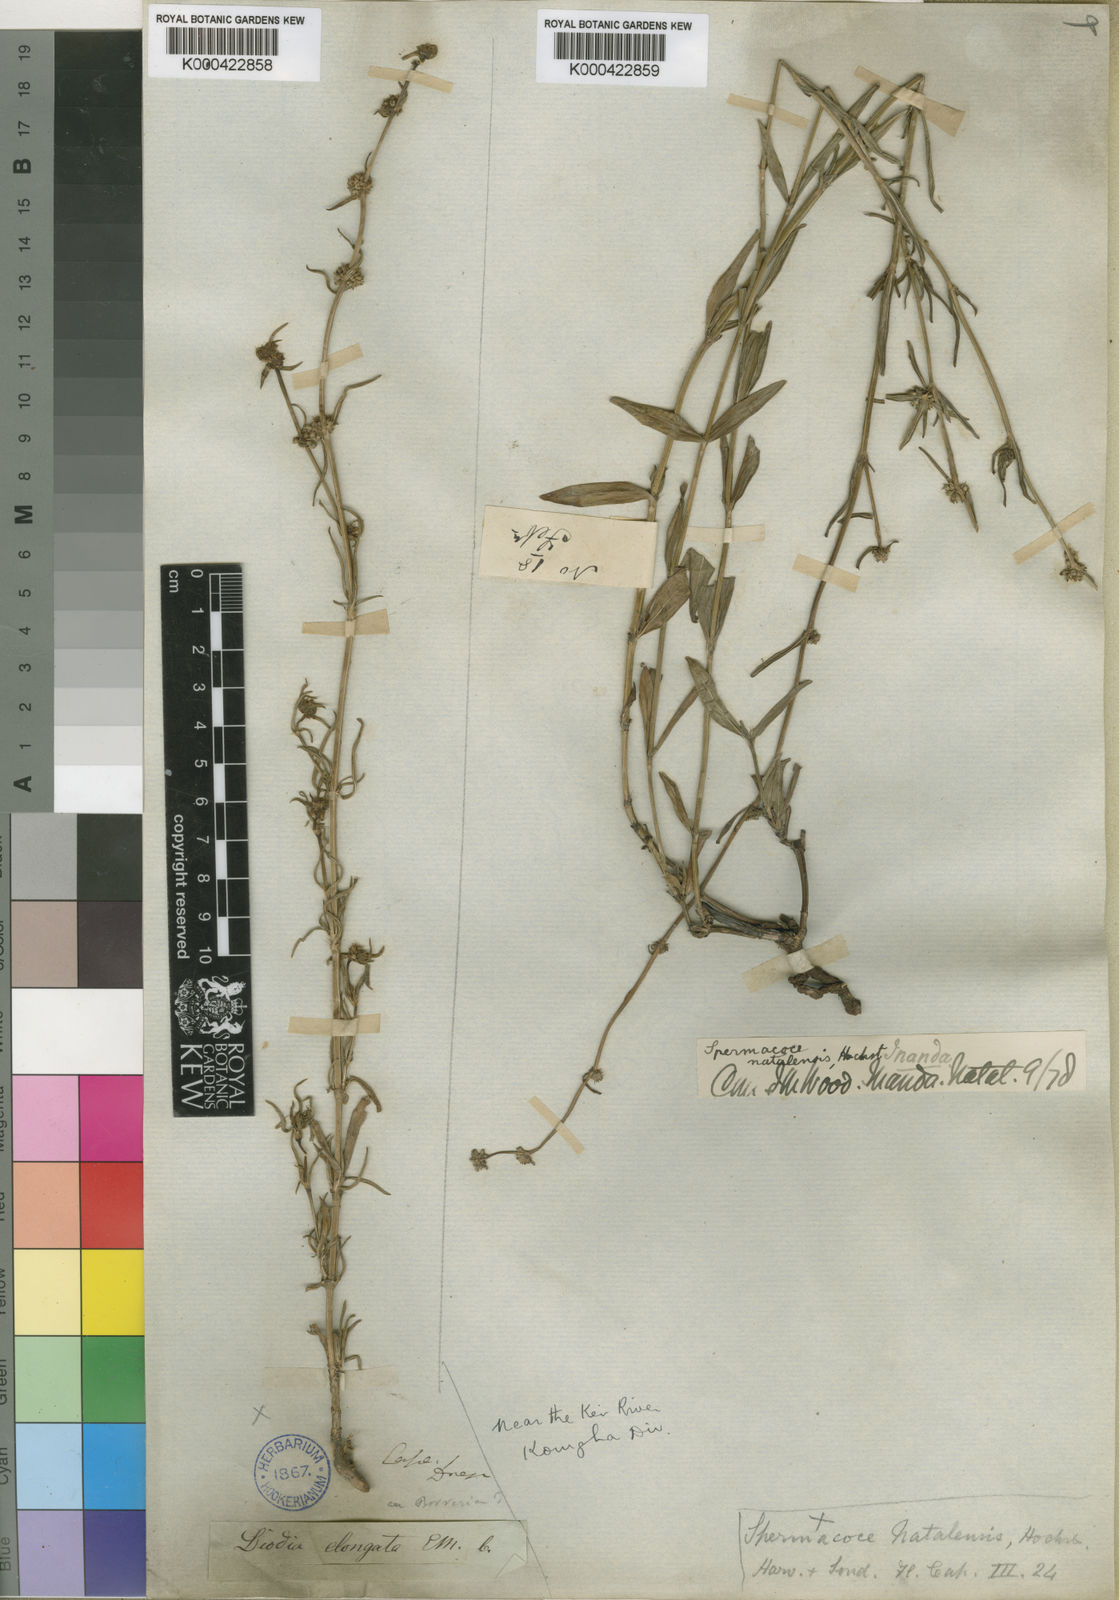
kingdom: Plantae
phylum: Tracheophyta
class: Magnoliopsida
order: Gentianales
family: Rubiaceae
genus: Spermacoce
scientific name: Spermacoce natalensis
